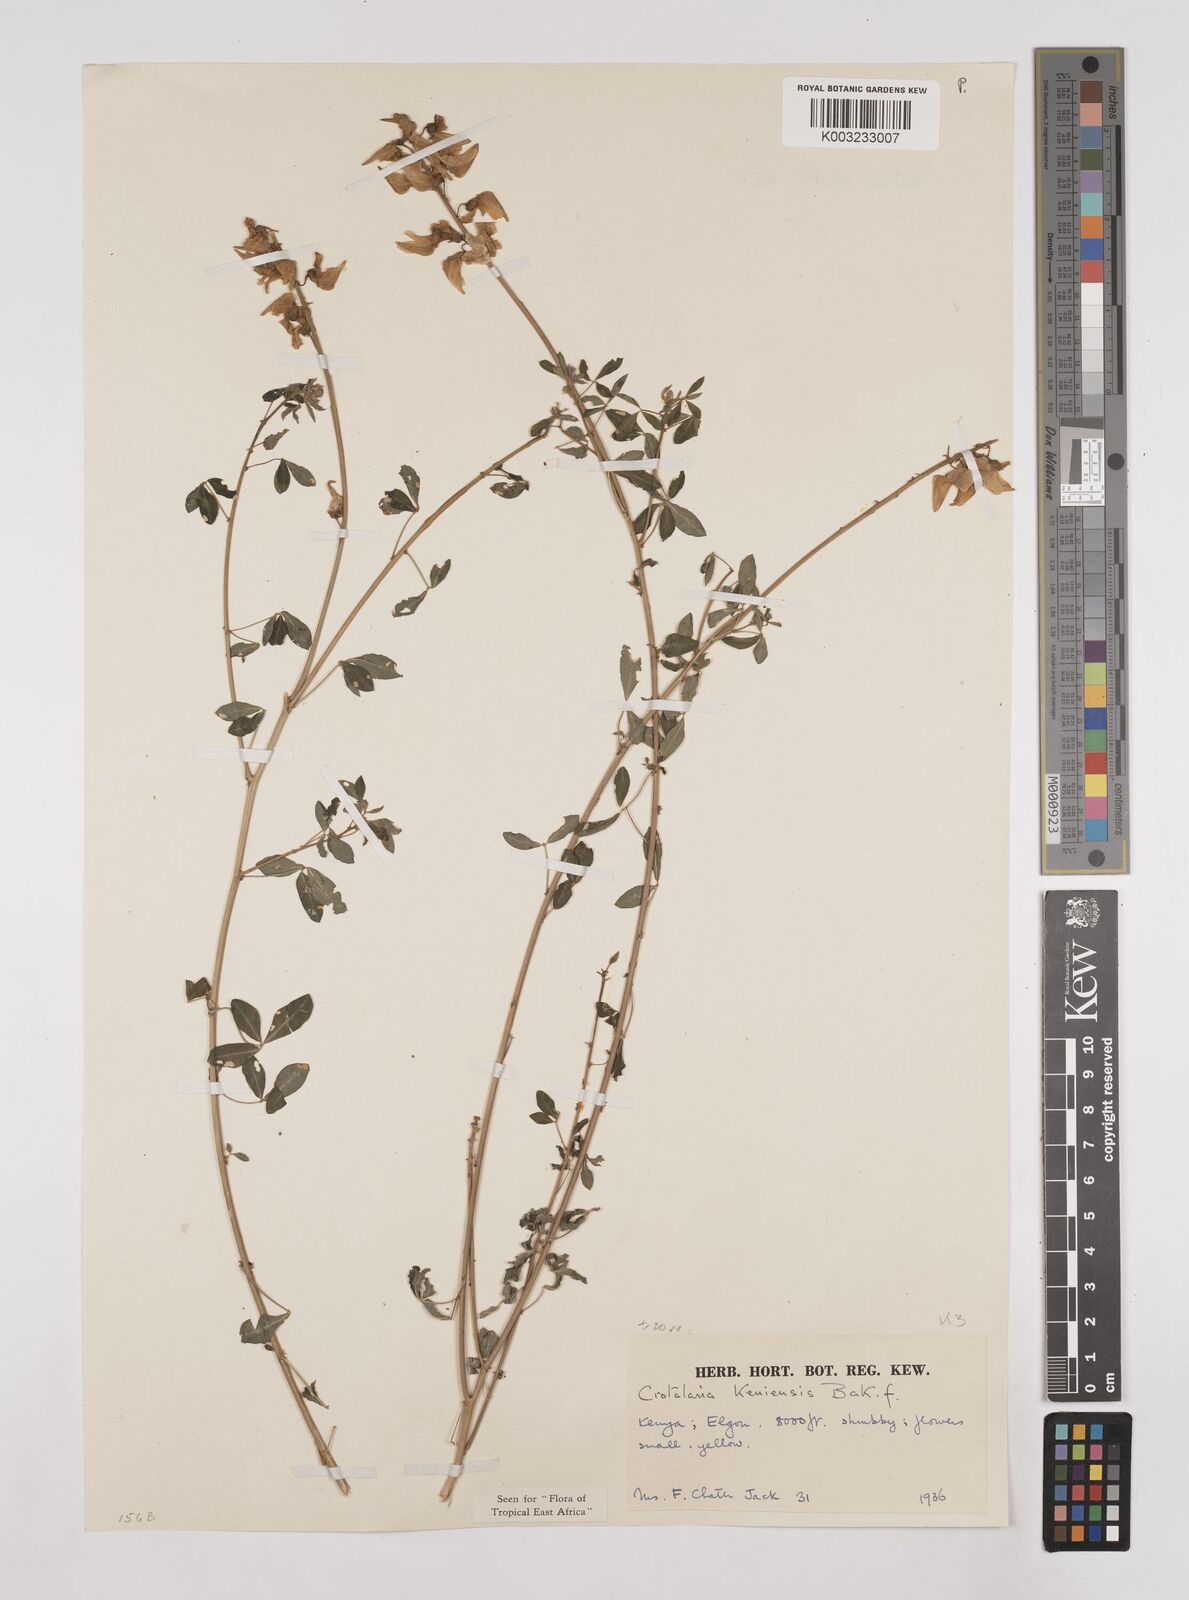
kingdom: Plantae
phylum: Tracheophyta
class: Magnoliopsida
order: Fabales
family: Fabaceae
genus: Crotalaria
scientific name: Crotalaria keniensis
